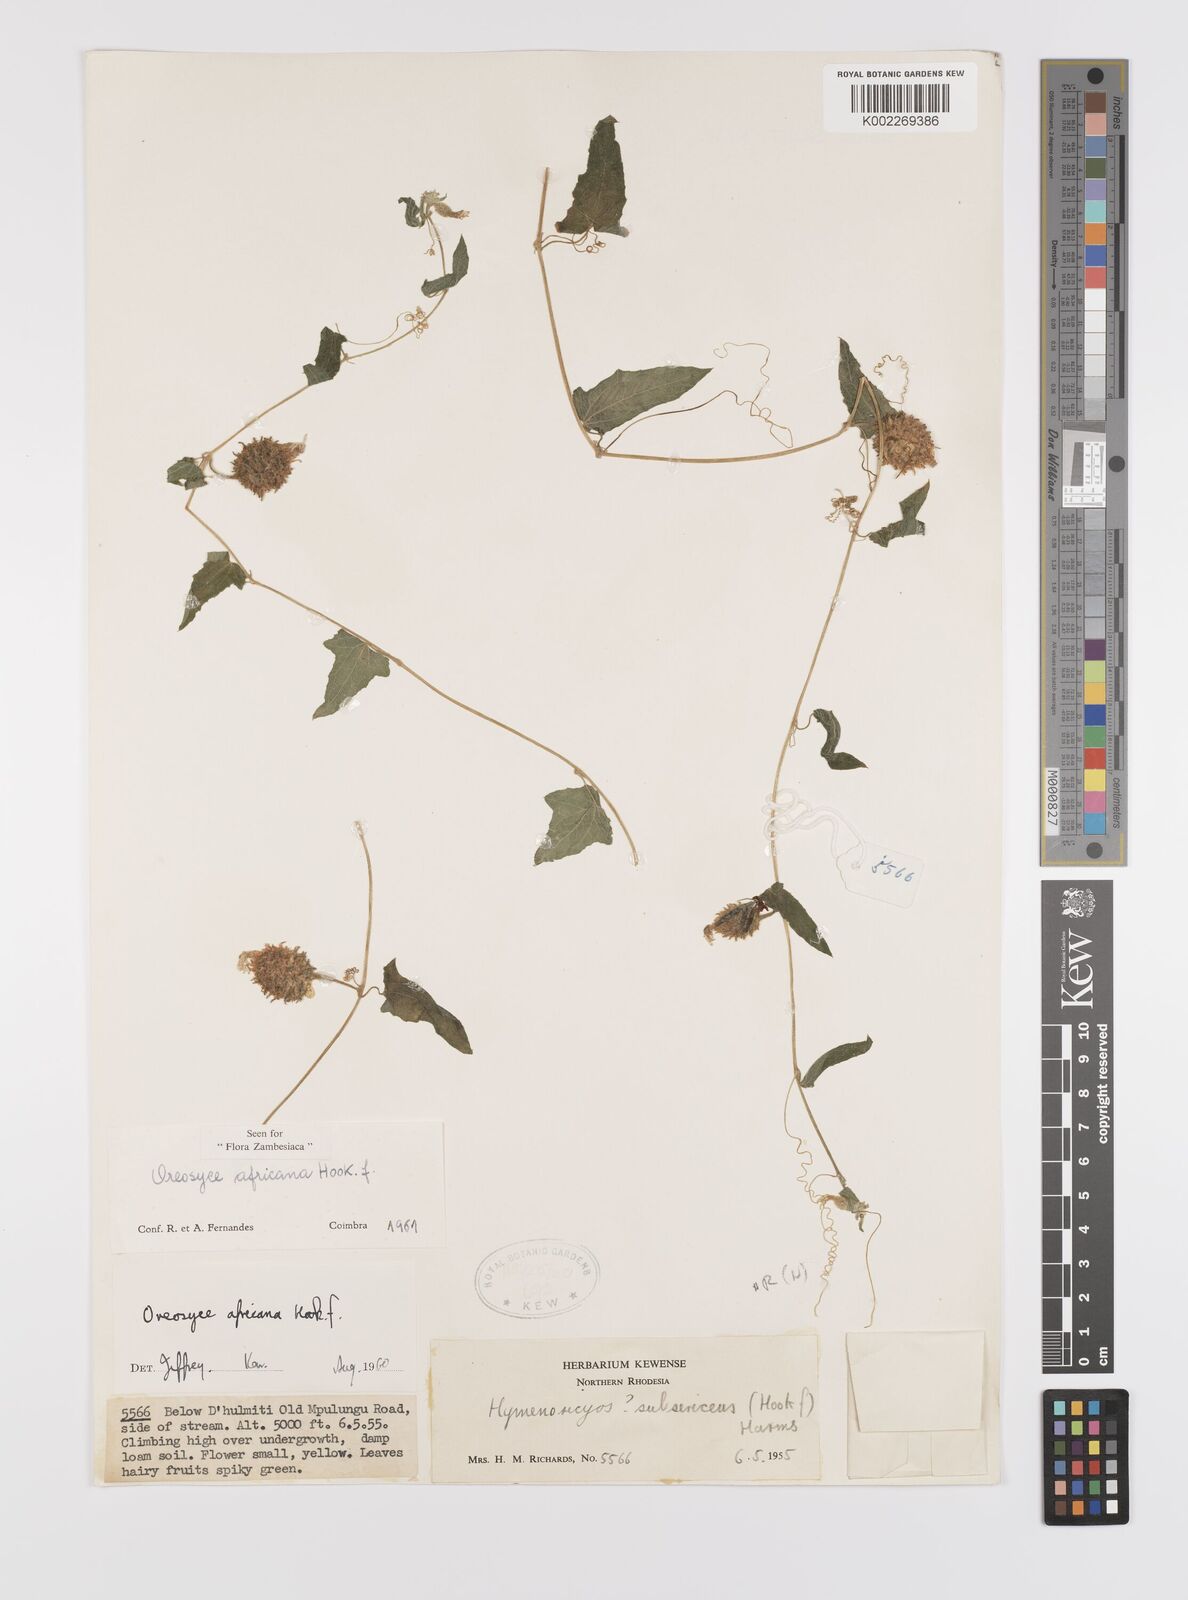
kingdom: Plantae
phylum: Tracheophyta
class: Magnoliopsida
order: Cucurbitales
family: Cucurbitaceae
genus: Cucumis
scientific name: Cucumis oreosyce
